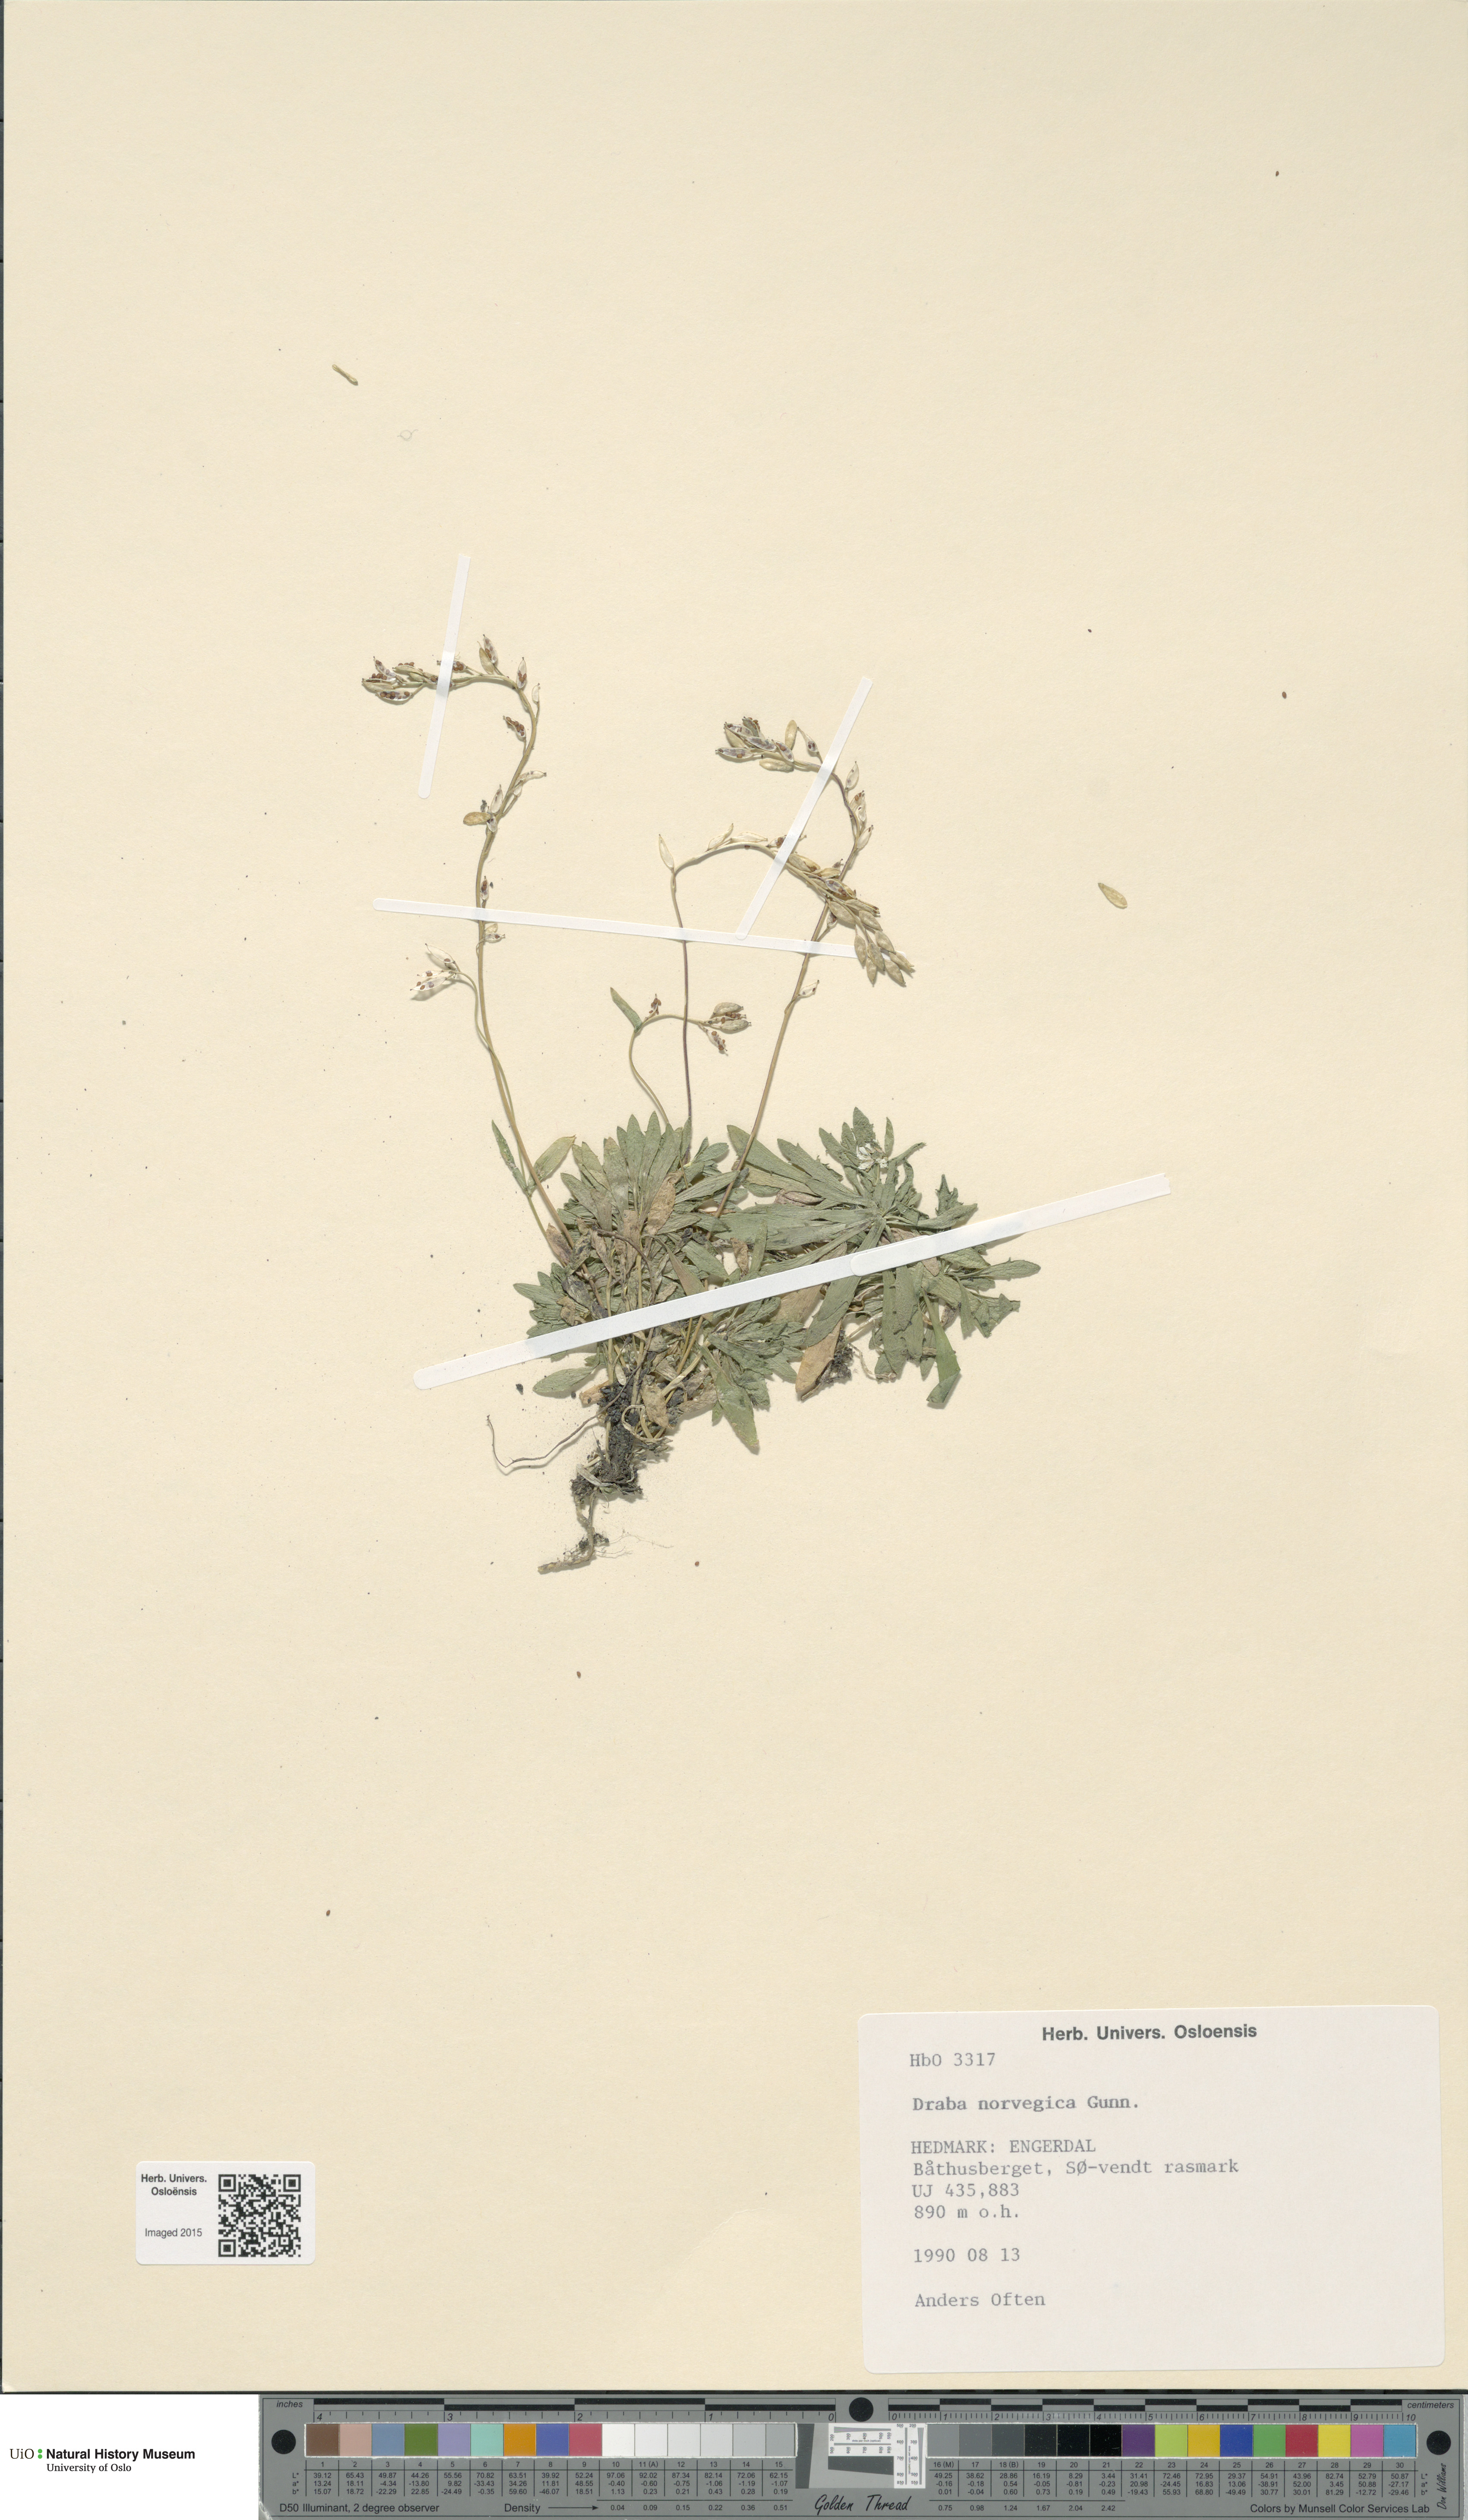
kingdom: Plantae
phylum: Tracheophyta
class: Magnoliopsida
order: Brassicales
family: Brassicaceae
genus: Draba
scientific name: Draba norvegica
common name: Rock whitlowgrass
